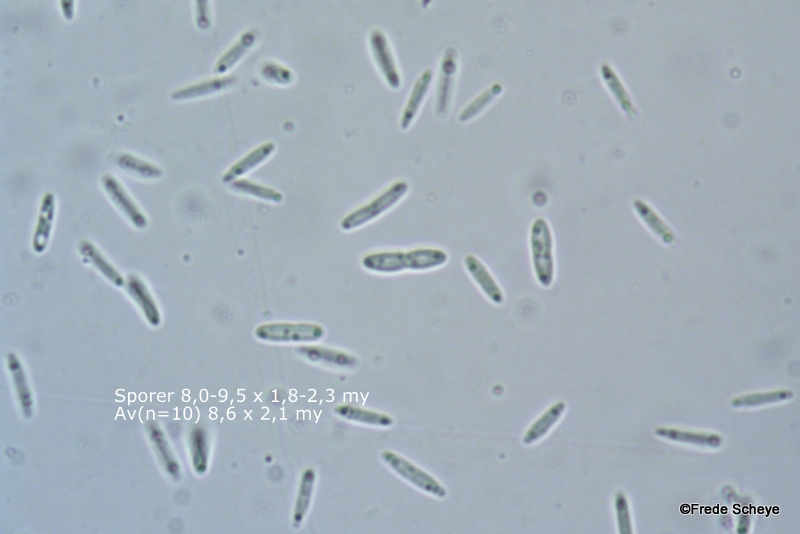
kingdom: Fungi
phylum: Ascomycota
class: Sordariomycetes
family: Barbatosphaeriaceae
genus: Barbatosphaeria
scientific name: Barbatosphaeria arboricola
